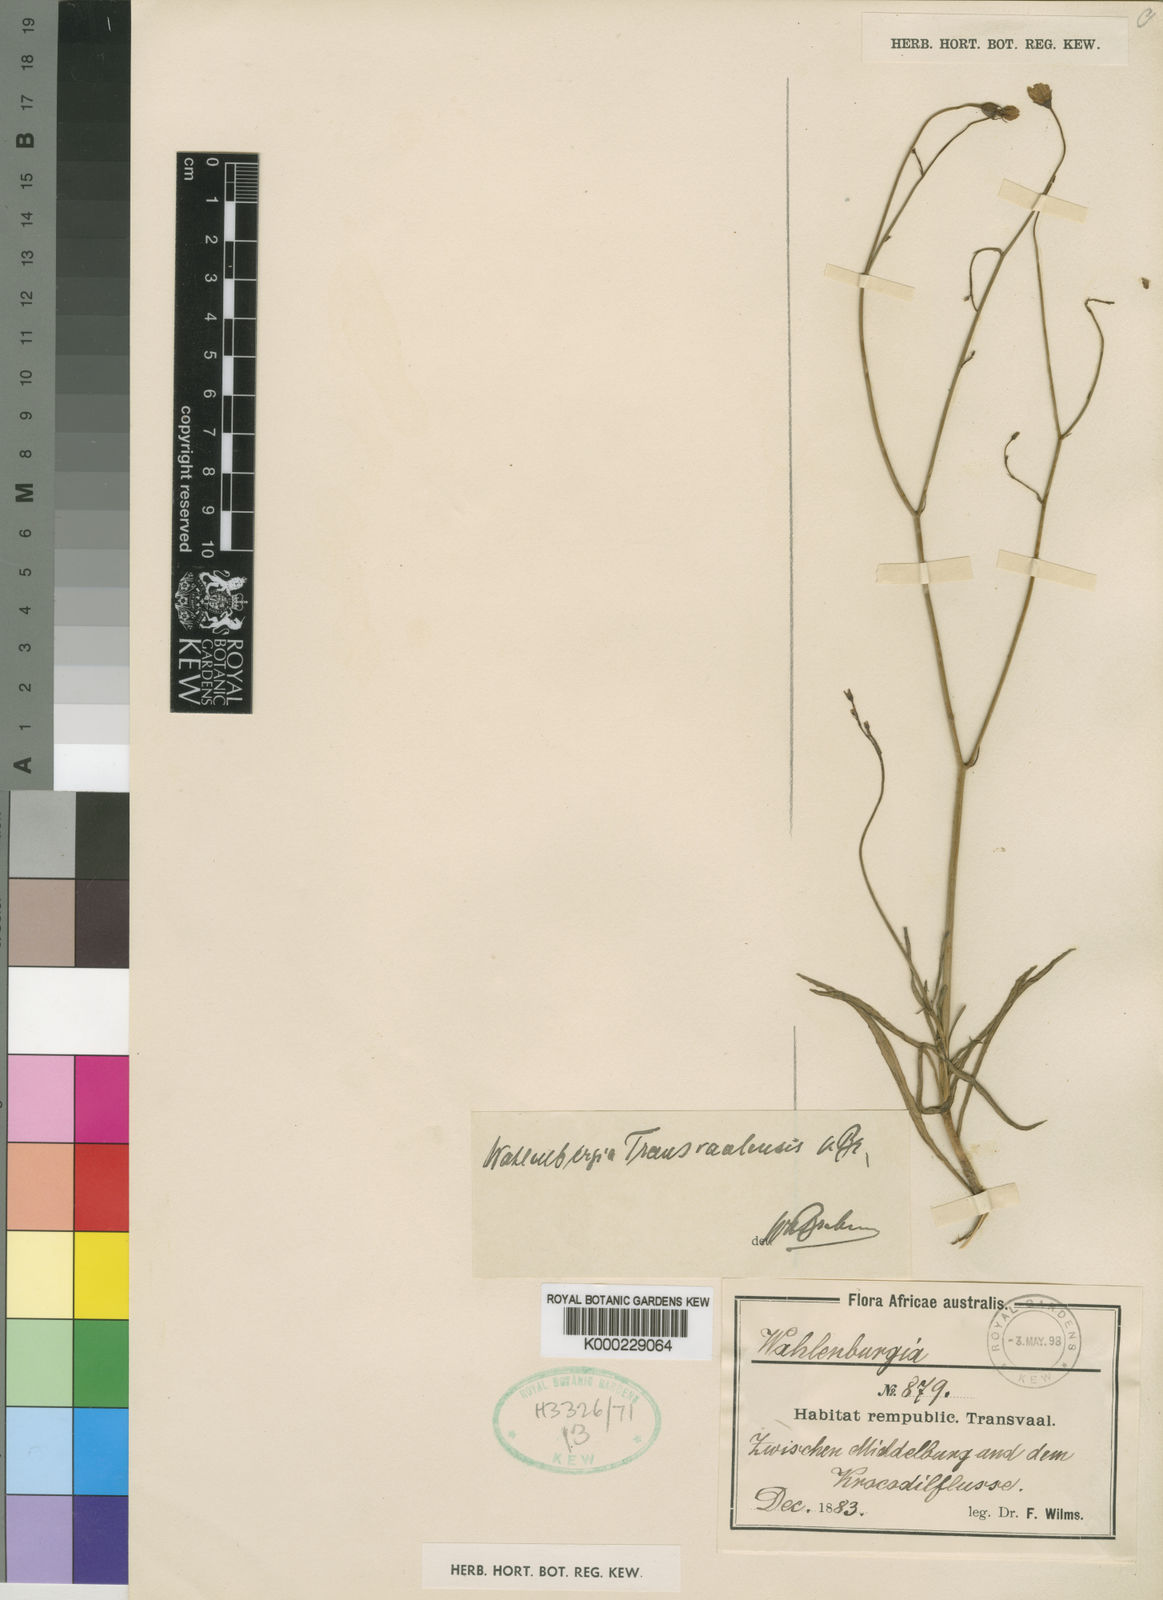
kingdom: Plantae
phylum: Tracheophyta
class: Magnoliopsida
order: Asterales
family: Campanulaceae
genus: Wahlenbergia
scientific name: Wahlenbergia transvaalensis
